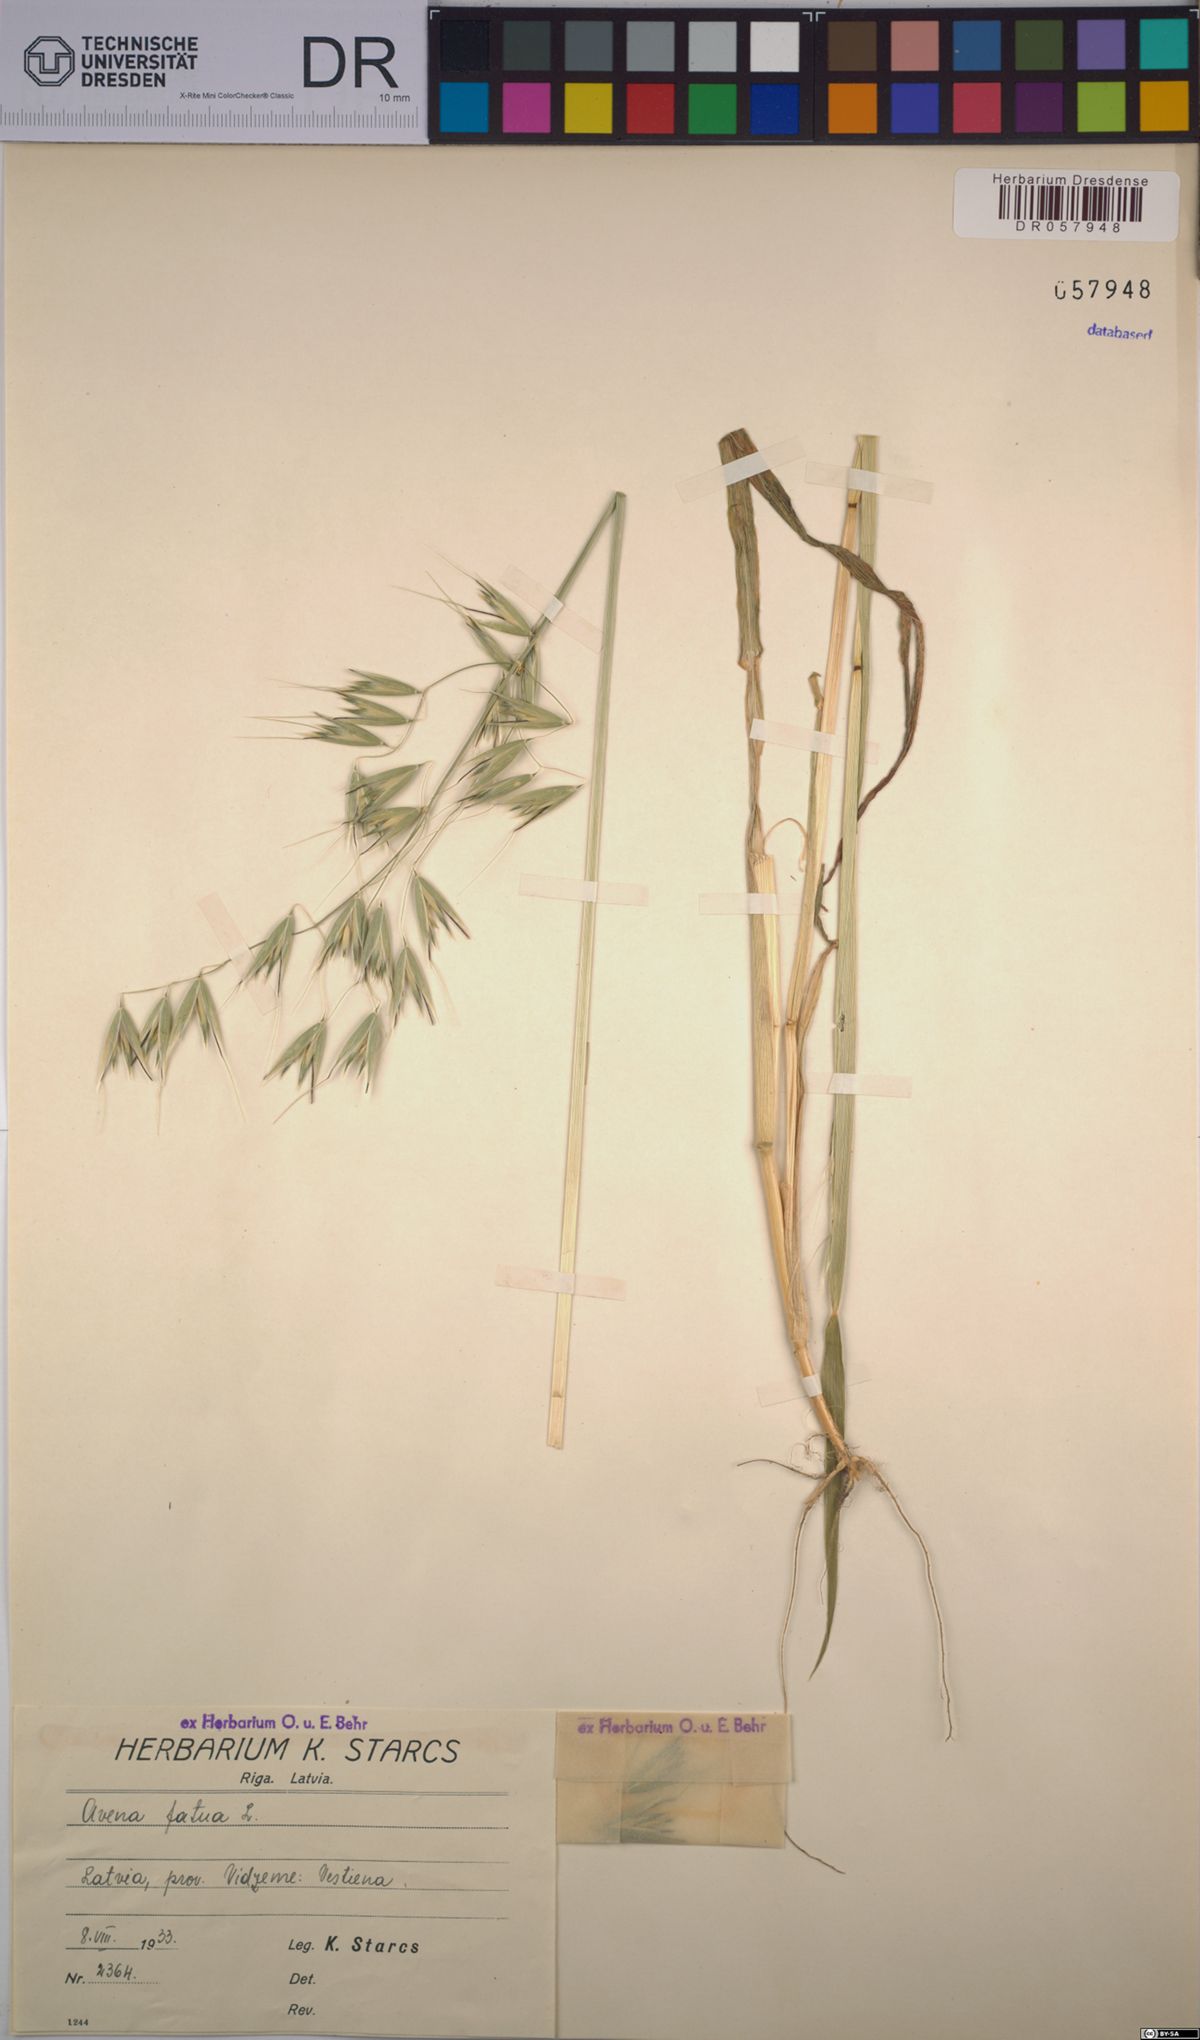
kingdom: Plantae
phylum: Tracheophyta
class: Liliopsida
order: Poales
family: Poaceae
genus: Avena
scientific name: Avena fatua
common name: Wild oat
